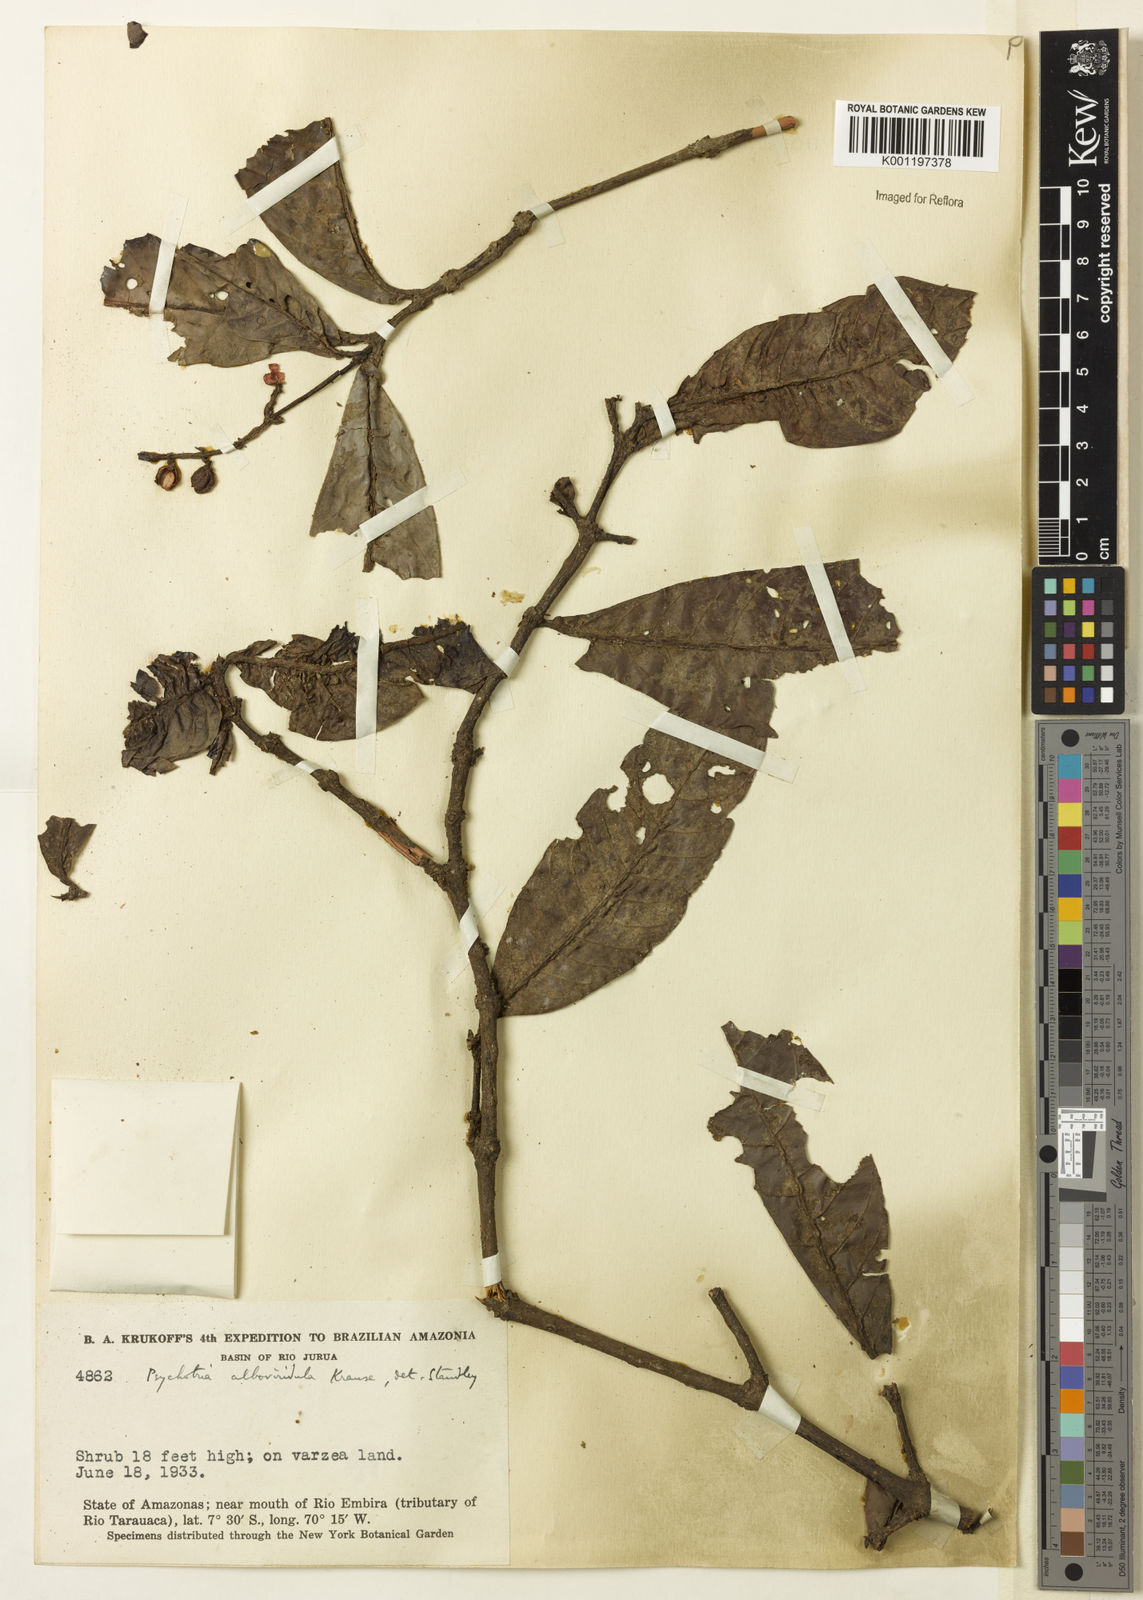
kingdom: Plantae
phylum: Tracheophyta
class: Magnoliopsida
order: Gentianales
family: Rubiaceae
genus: Psychotria
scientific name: Psychotria remota
